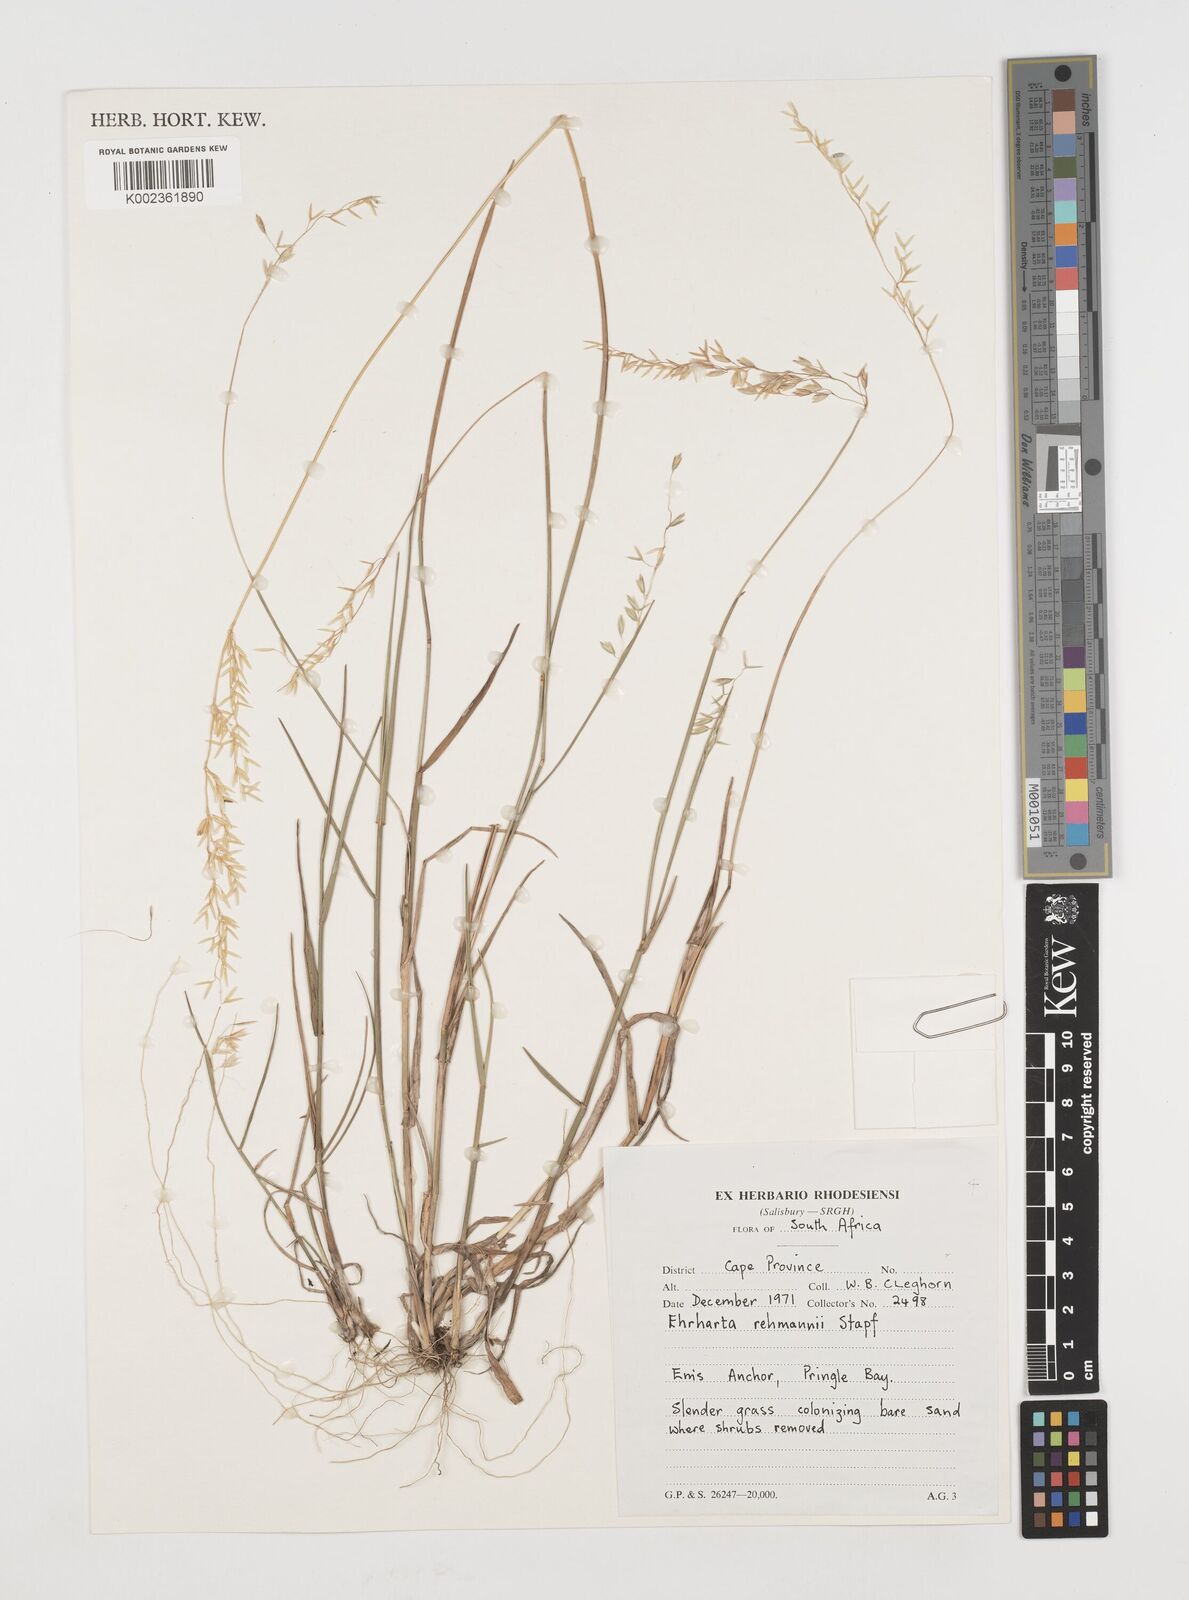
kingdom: Plantae
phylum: Tracheophyta
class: Liliopsida
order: Poales
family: Poaceae
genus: Ehrharta
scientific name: Ehrharta
